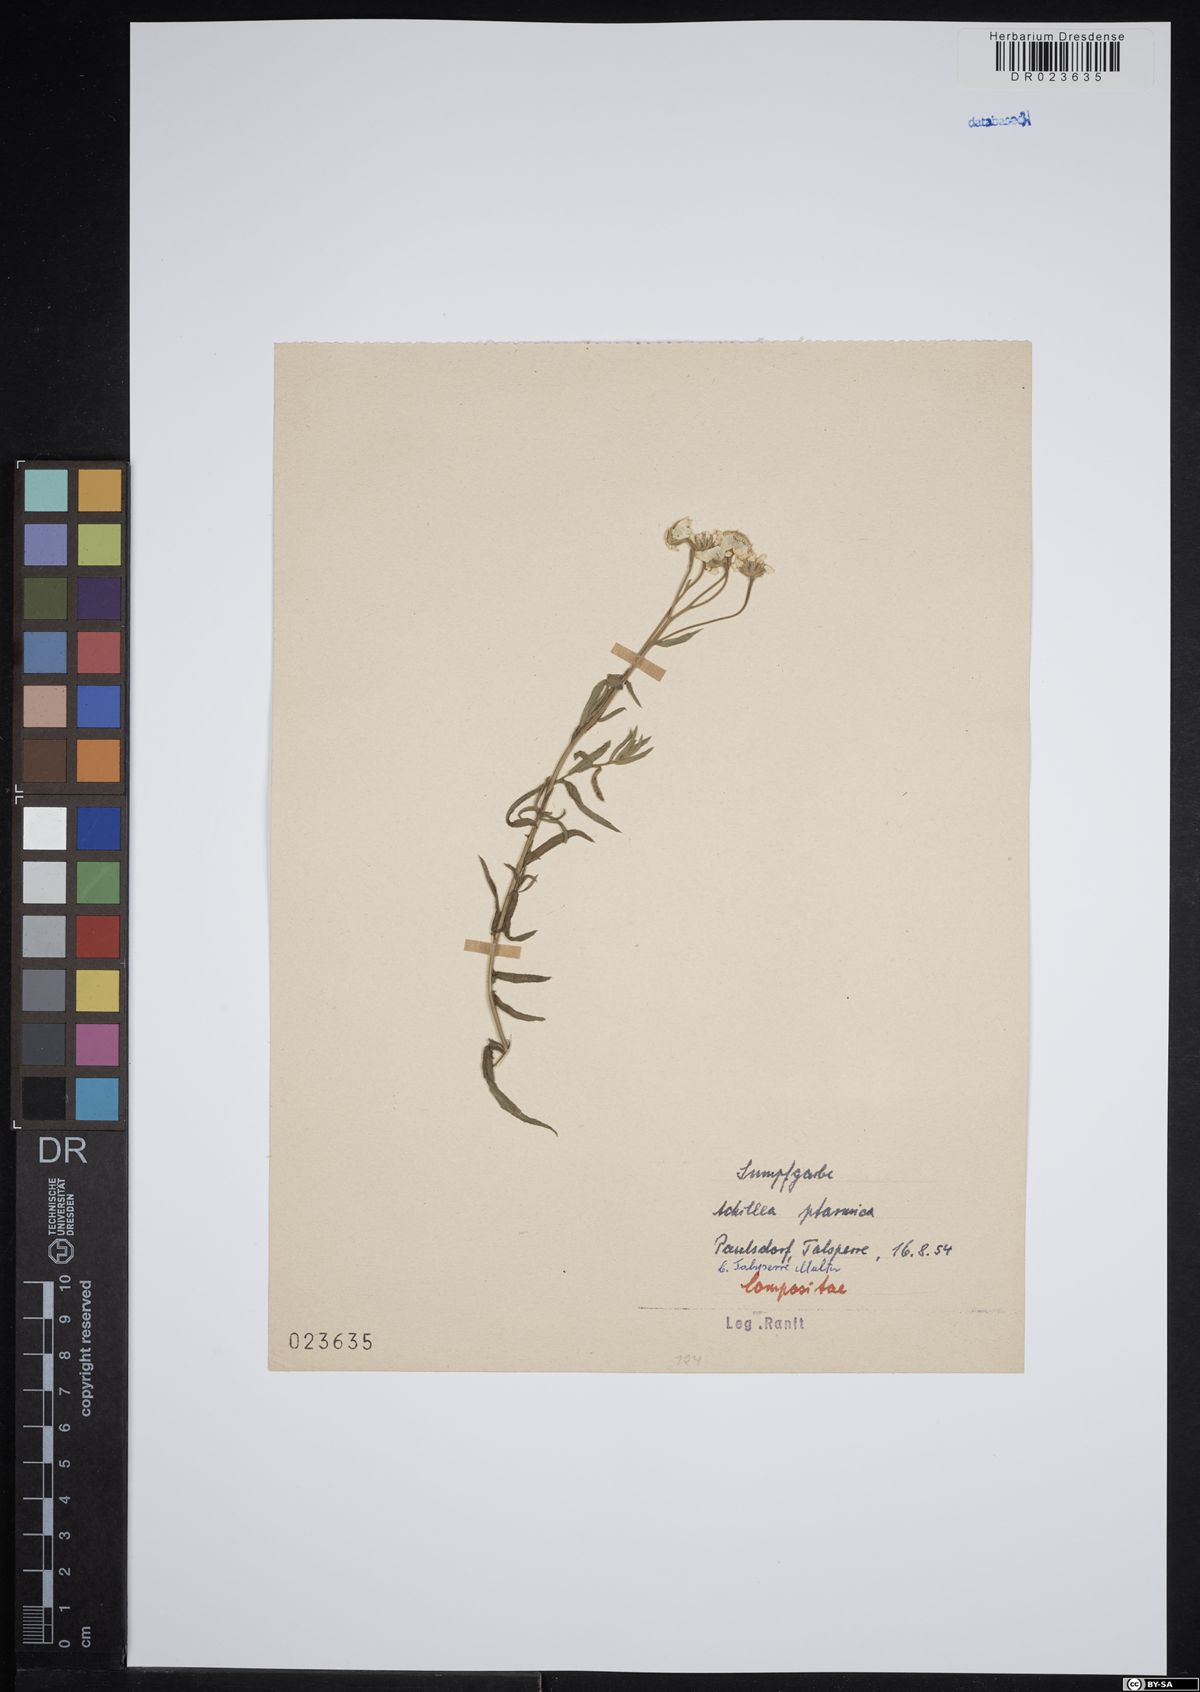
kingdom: Plantae
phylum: Tracheophyta
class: Magnoliopsida
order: Asterales
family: Asteraceae
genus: Achillea
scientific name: Achillea ptarmica
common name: Sneezeweed
